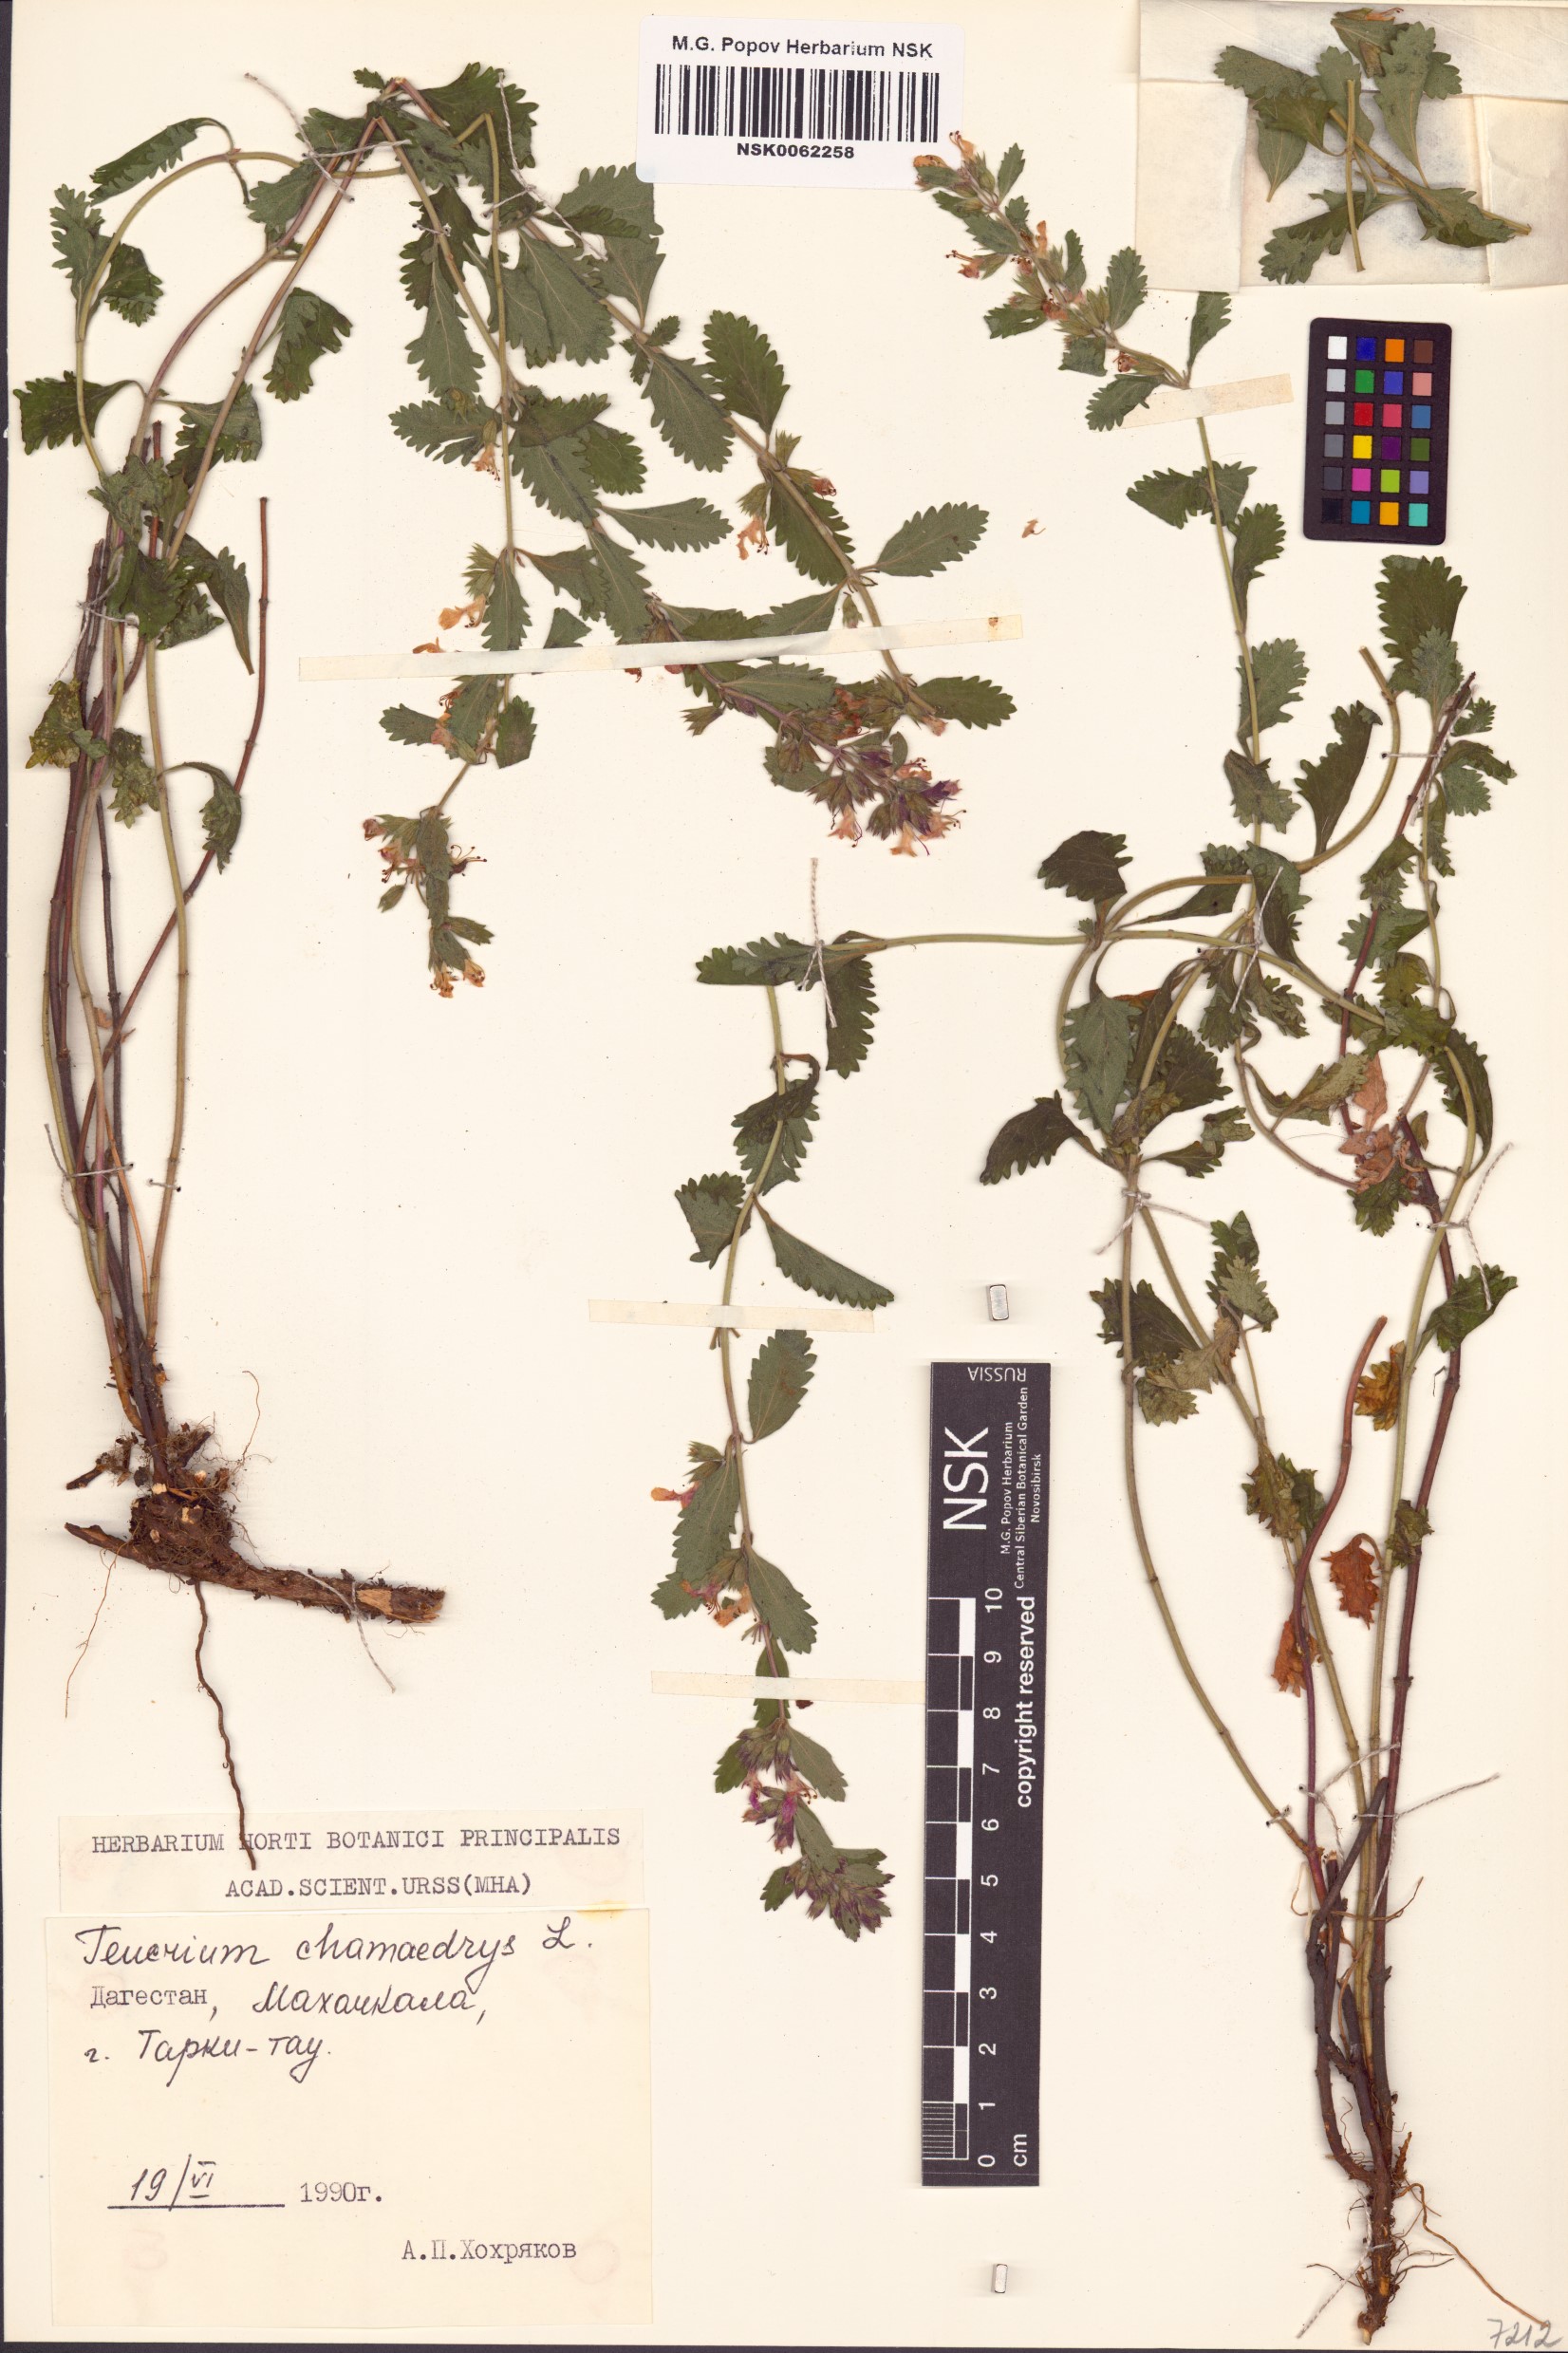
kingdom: Plantae
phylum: Tracheophyta
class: Magnoliopsida
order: Lamiales
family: Lamiaceae
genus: Teucrium
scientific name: Teucrium chamaedrys
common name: Wall germander
